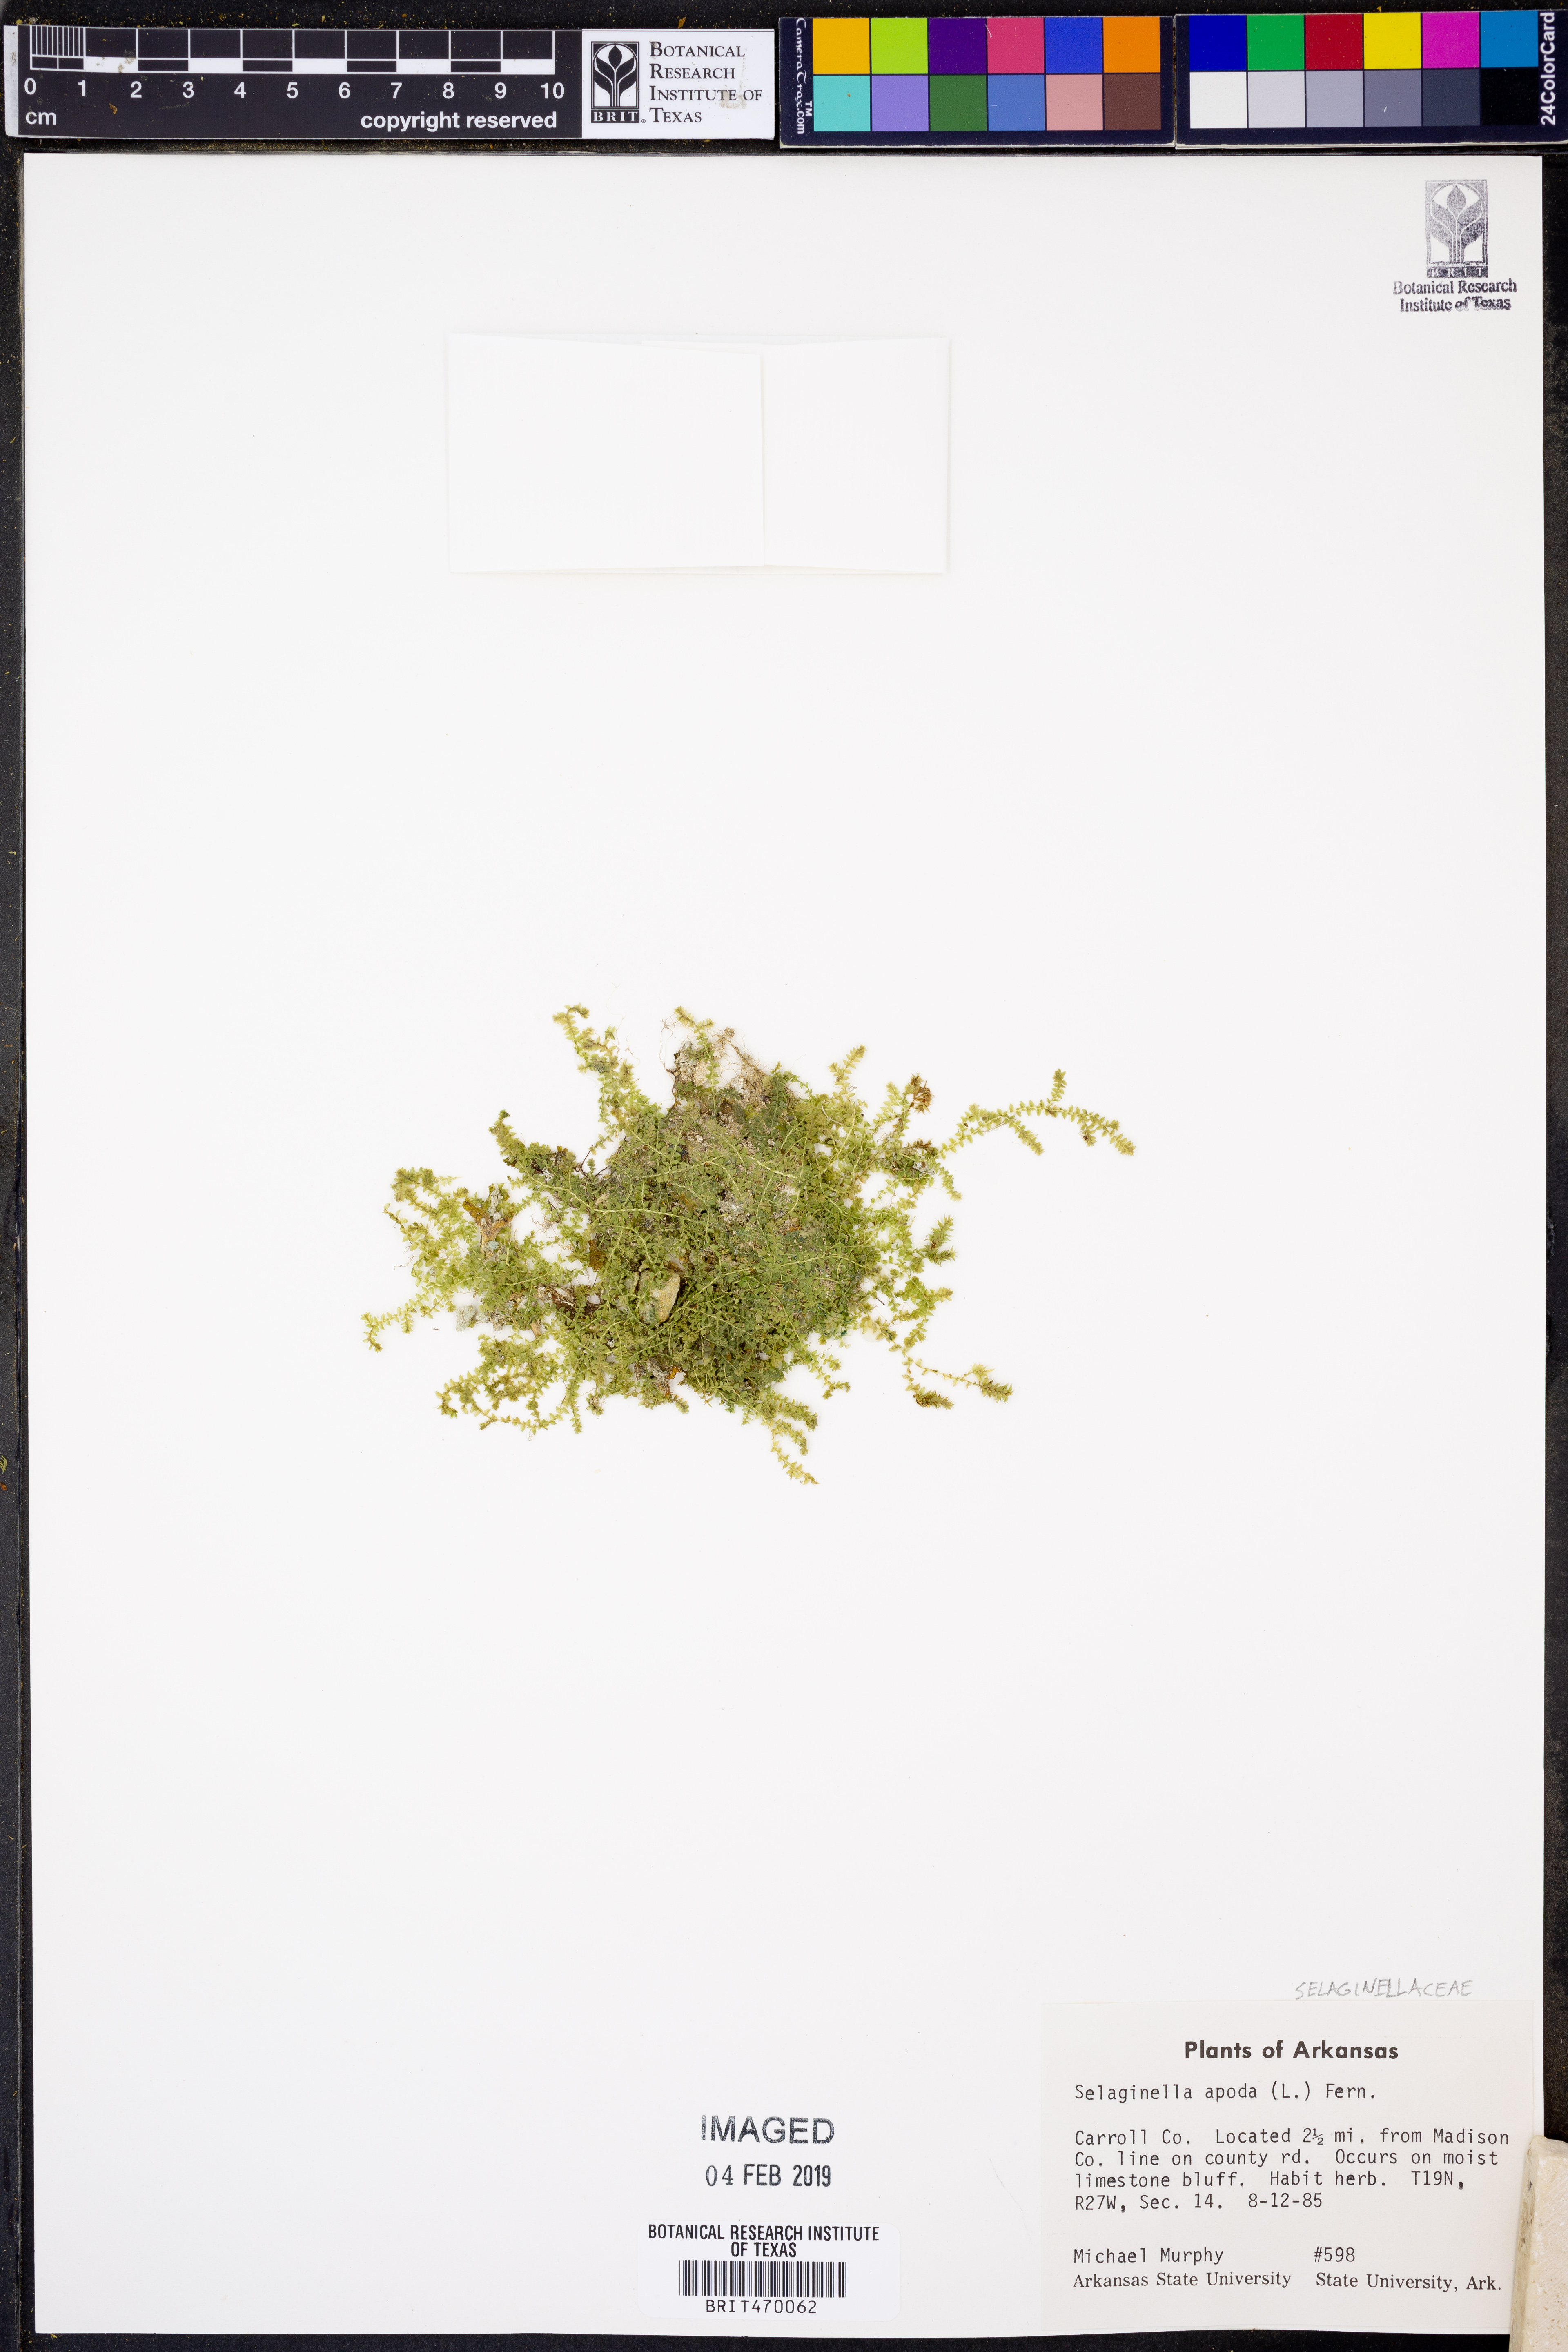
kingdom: Plantae
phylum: Tracheophyta
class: Lycopodiopsida
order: Selaginellales
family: Selaginellaceae
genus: Selaginella
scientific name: Selaginella apoda
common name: Creeping spikemoss
